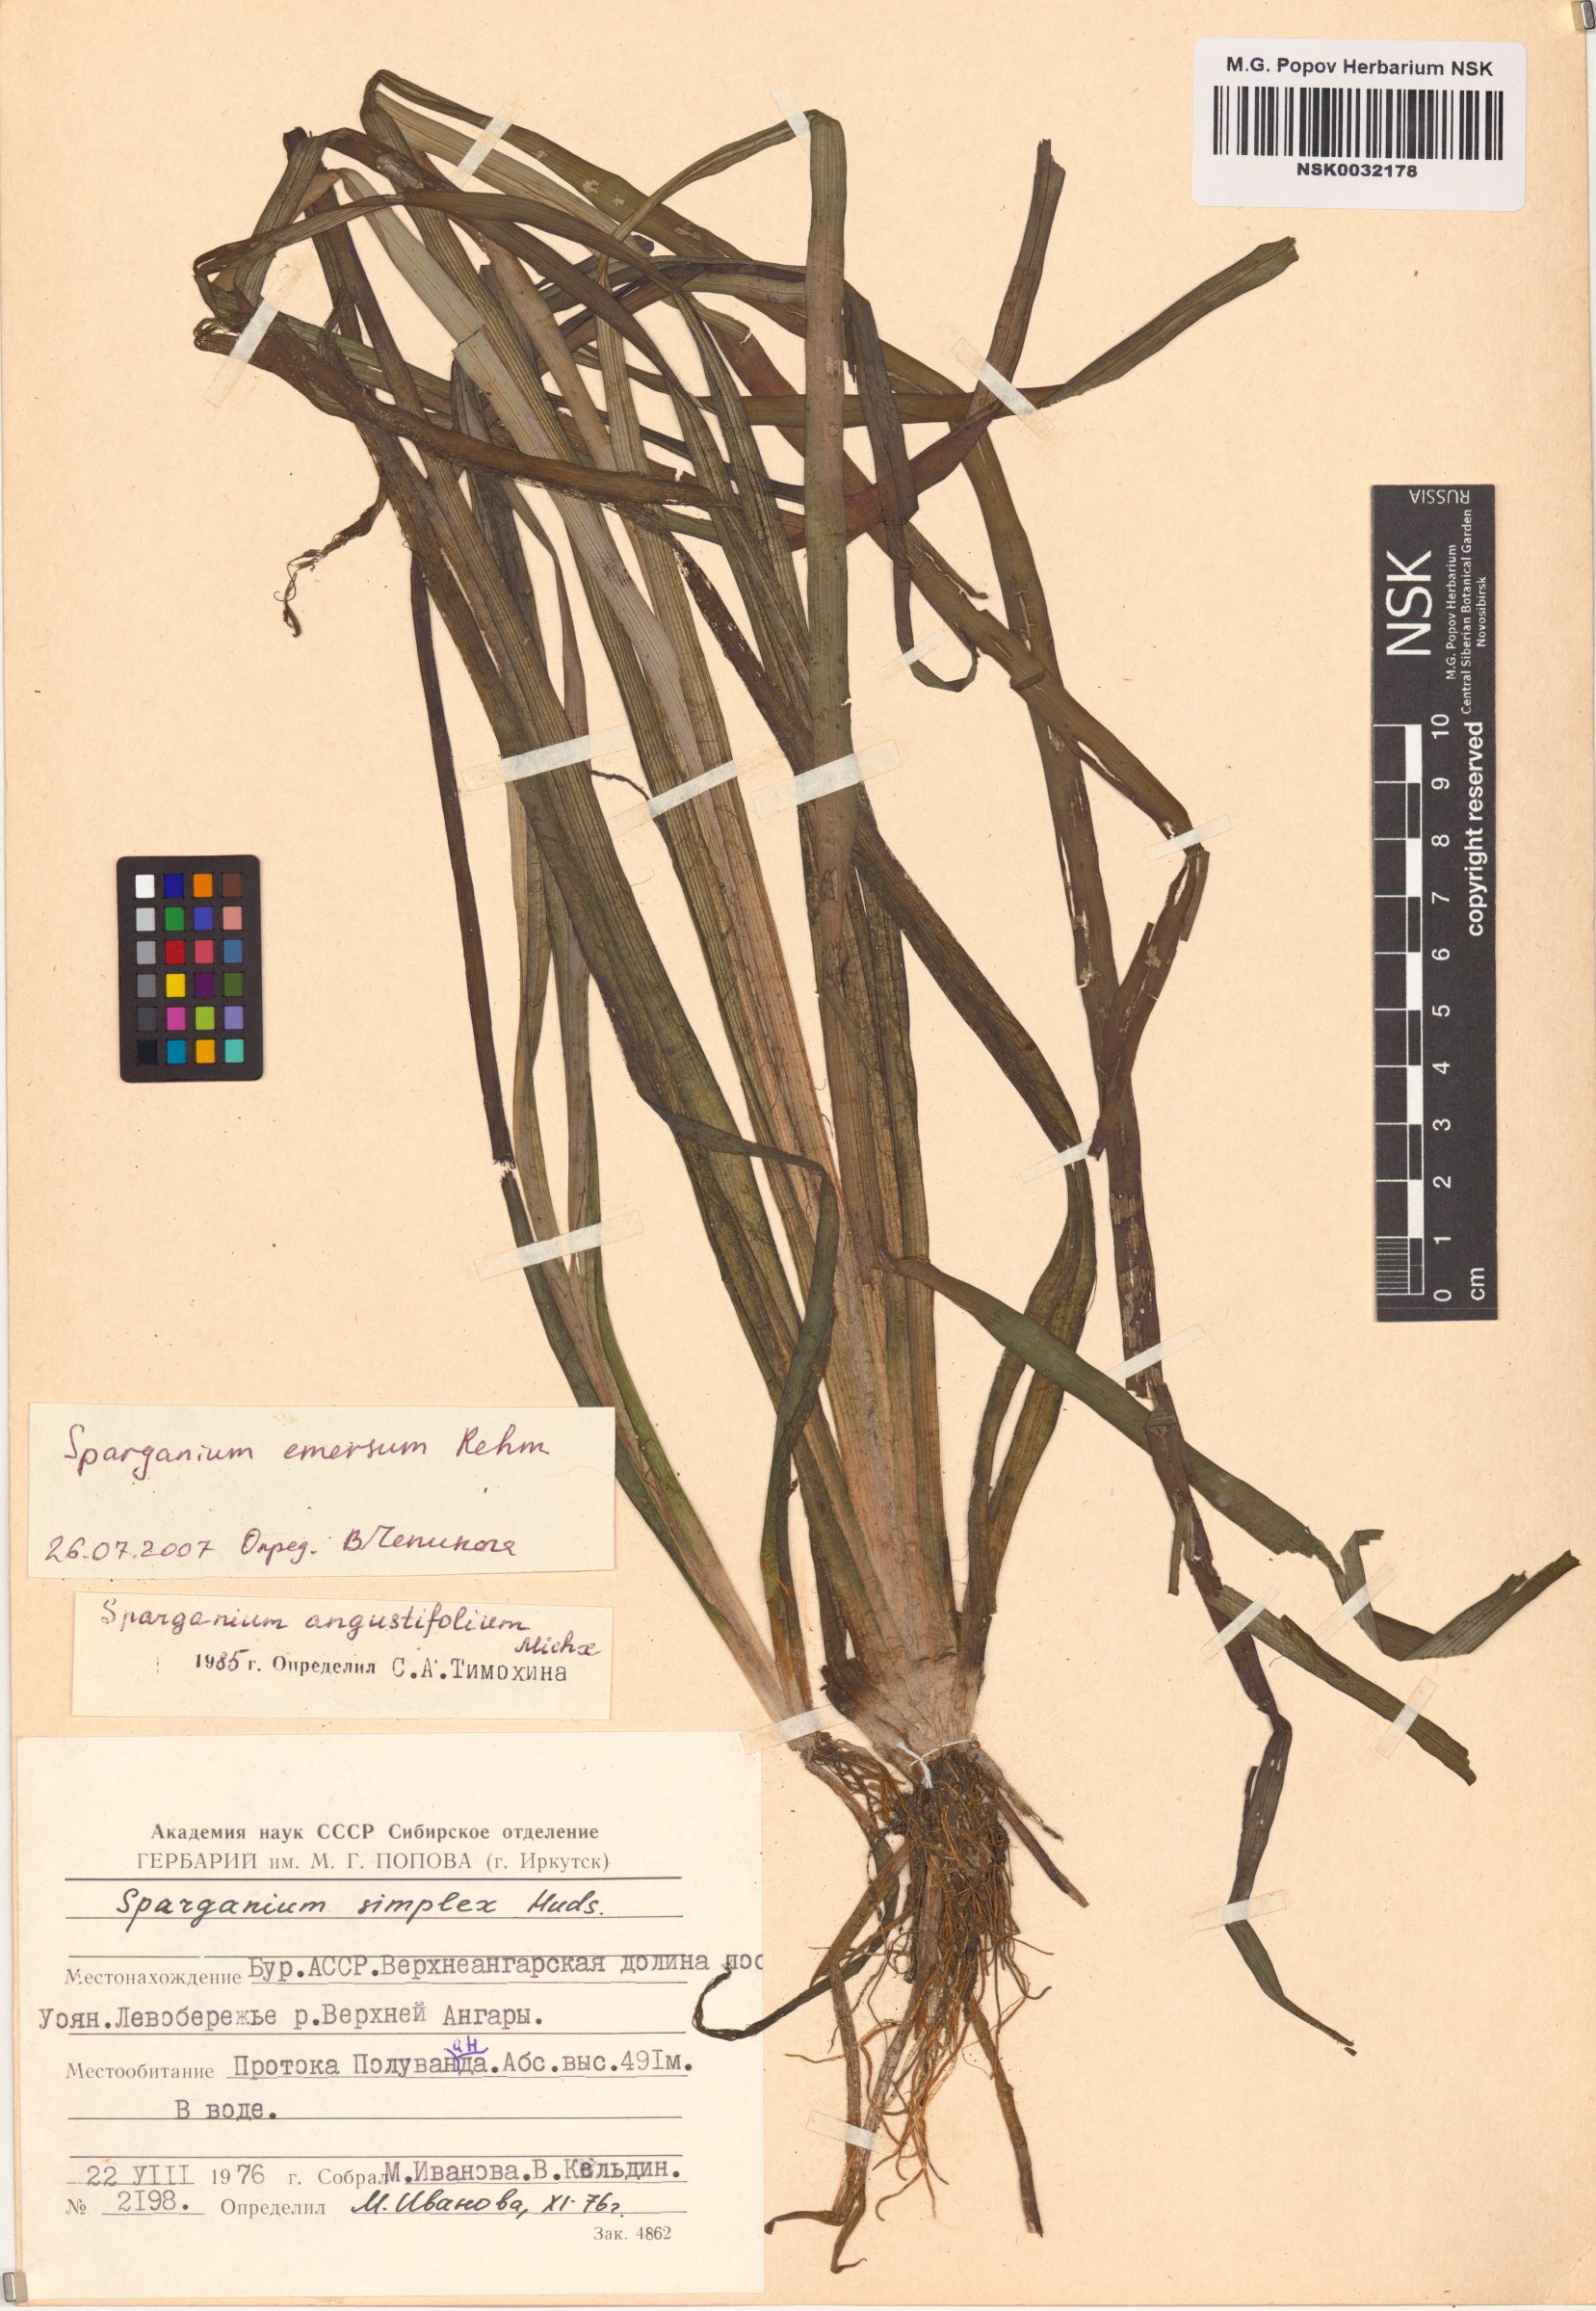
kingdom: Plantae
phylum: Tracheophyta
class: Liliopsida
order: Poales
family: Typhaceae
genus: Sparganium
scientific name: Sparganium emersum
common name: Unbranched bur-reed
